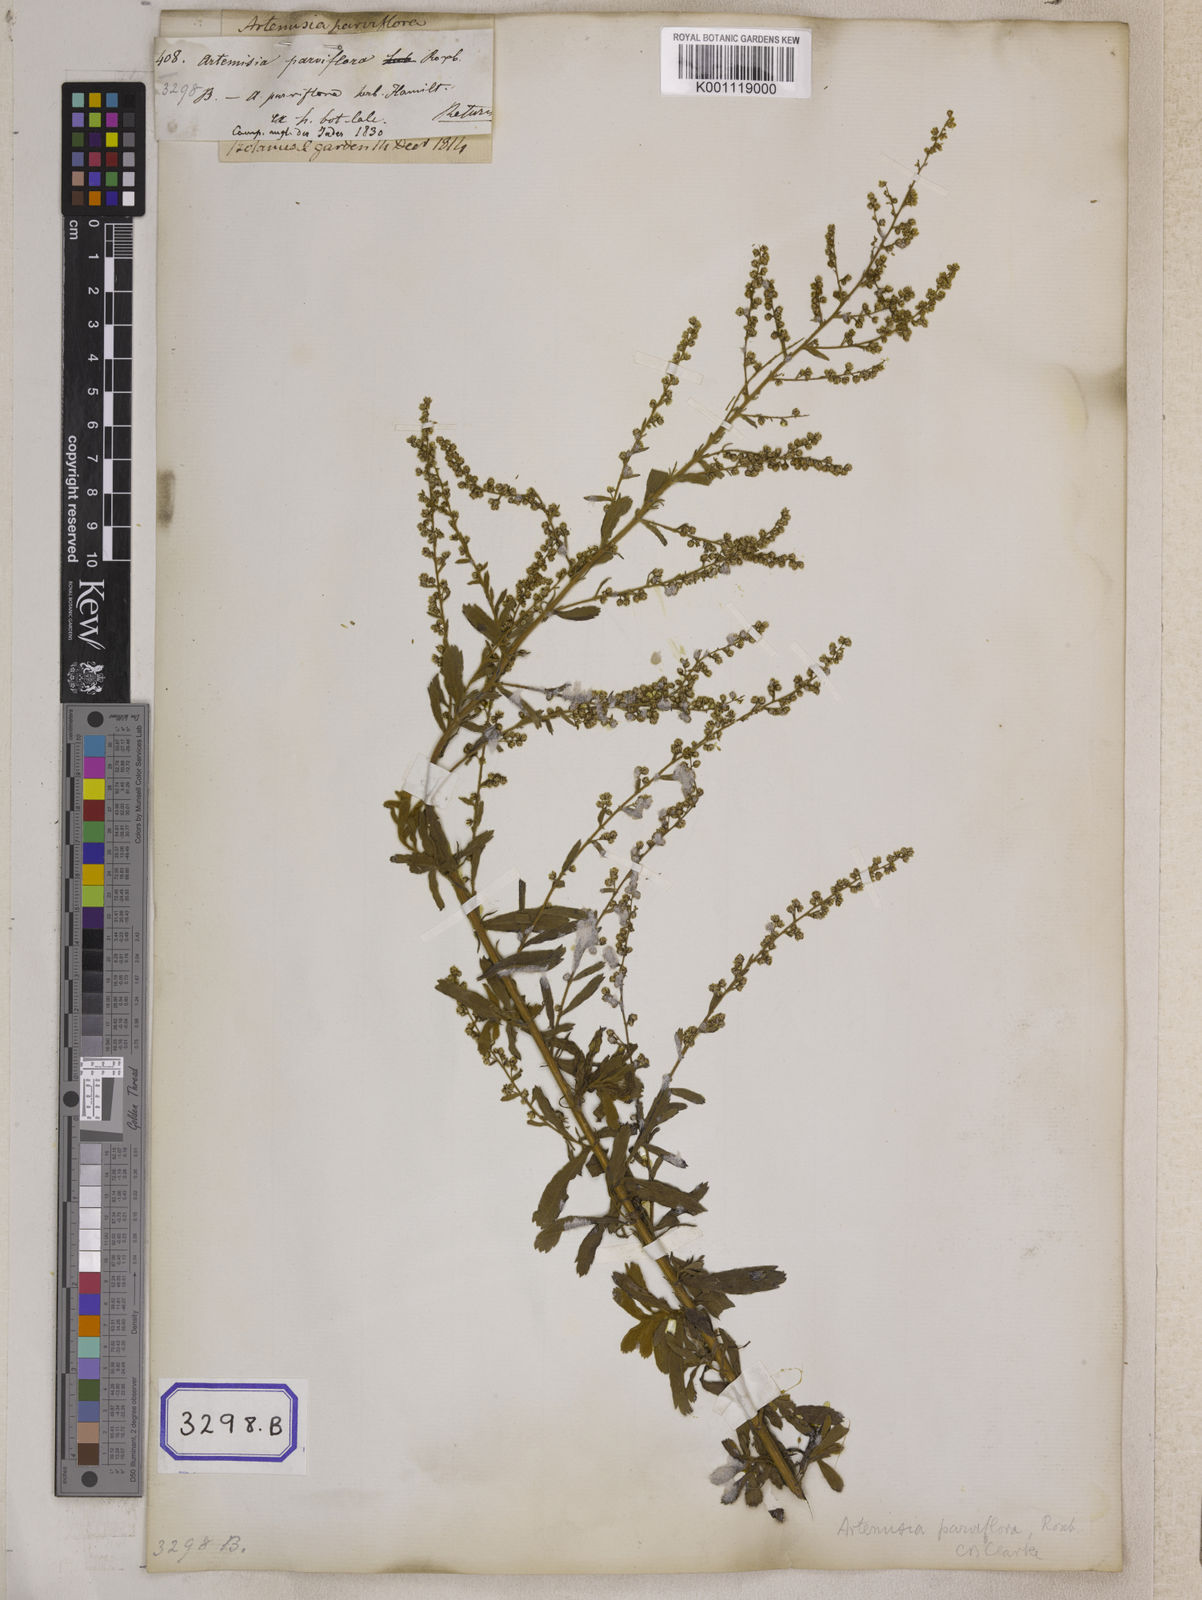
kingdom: Plantae
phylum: Tracheophyta
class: Magnoliopsida
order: Asterales
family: Asteraceae
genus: Artemisia
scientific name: Artemisia parviflora
